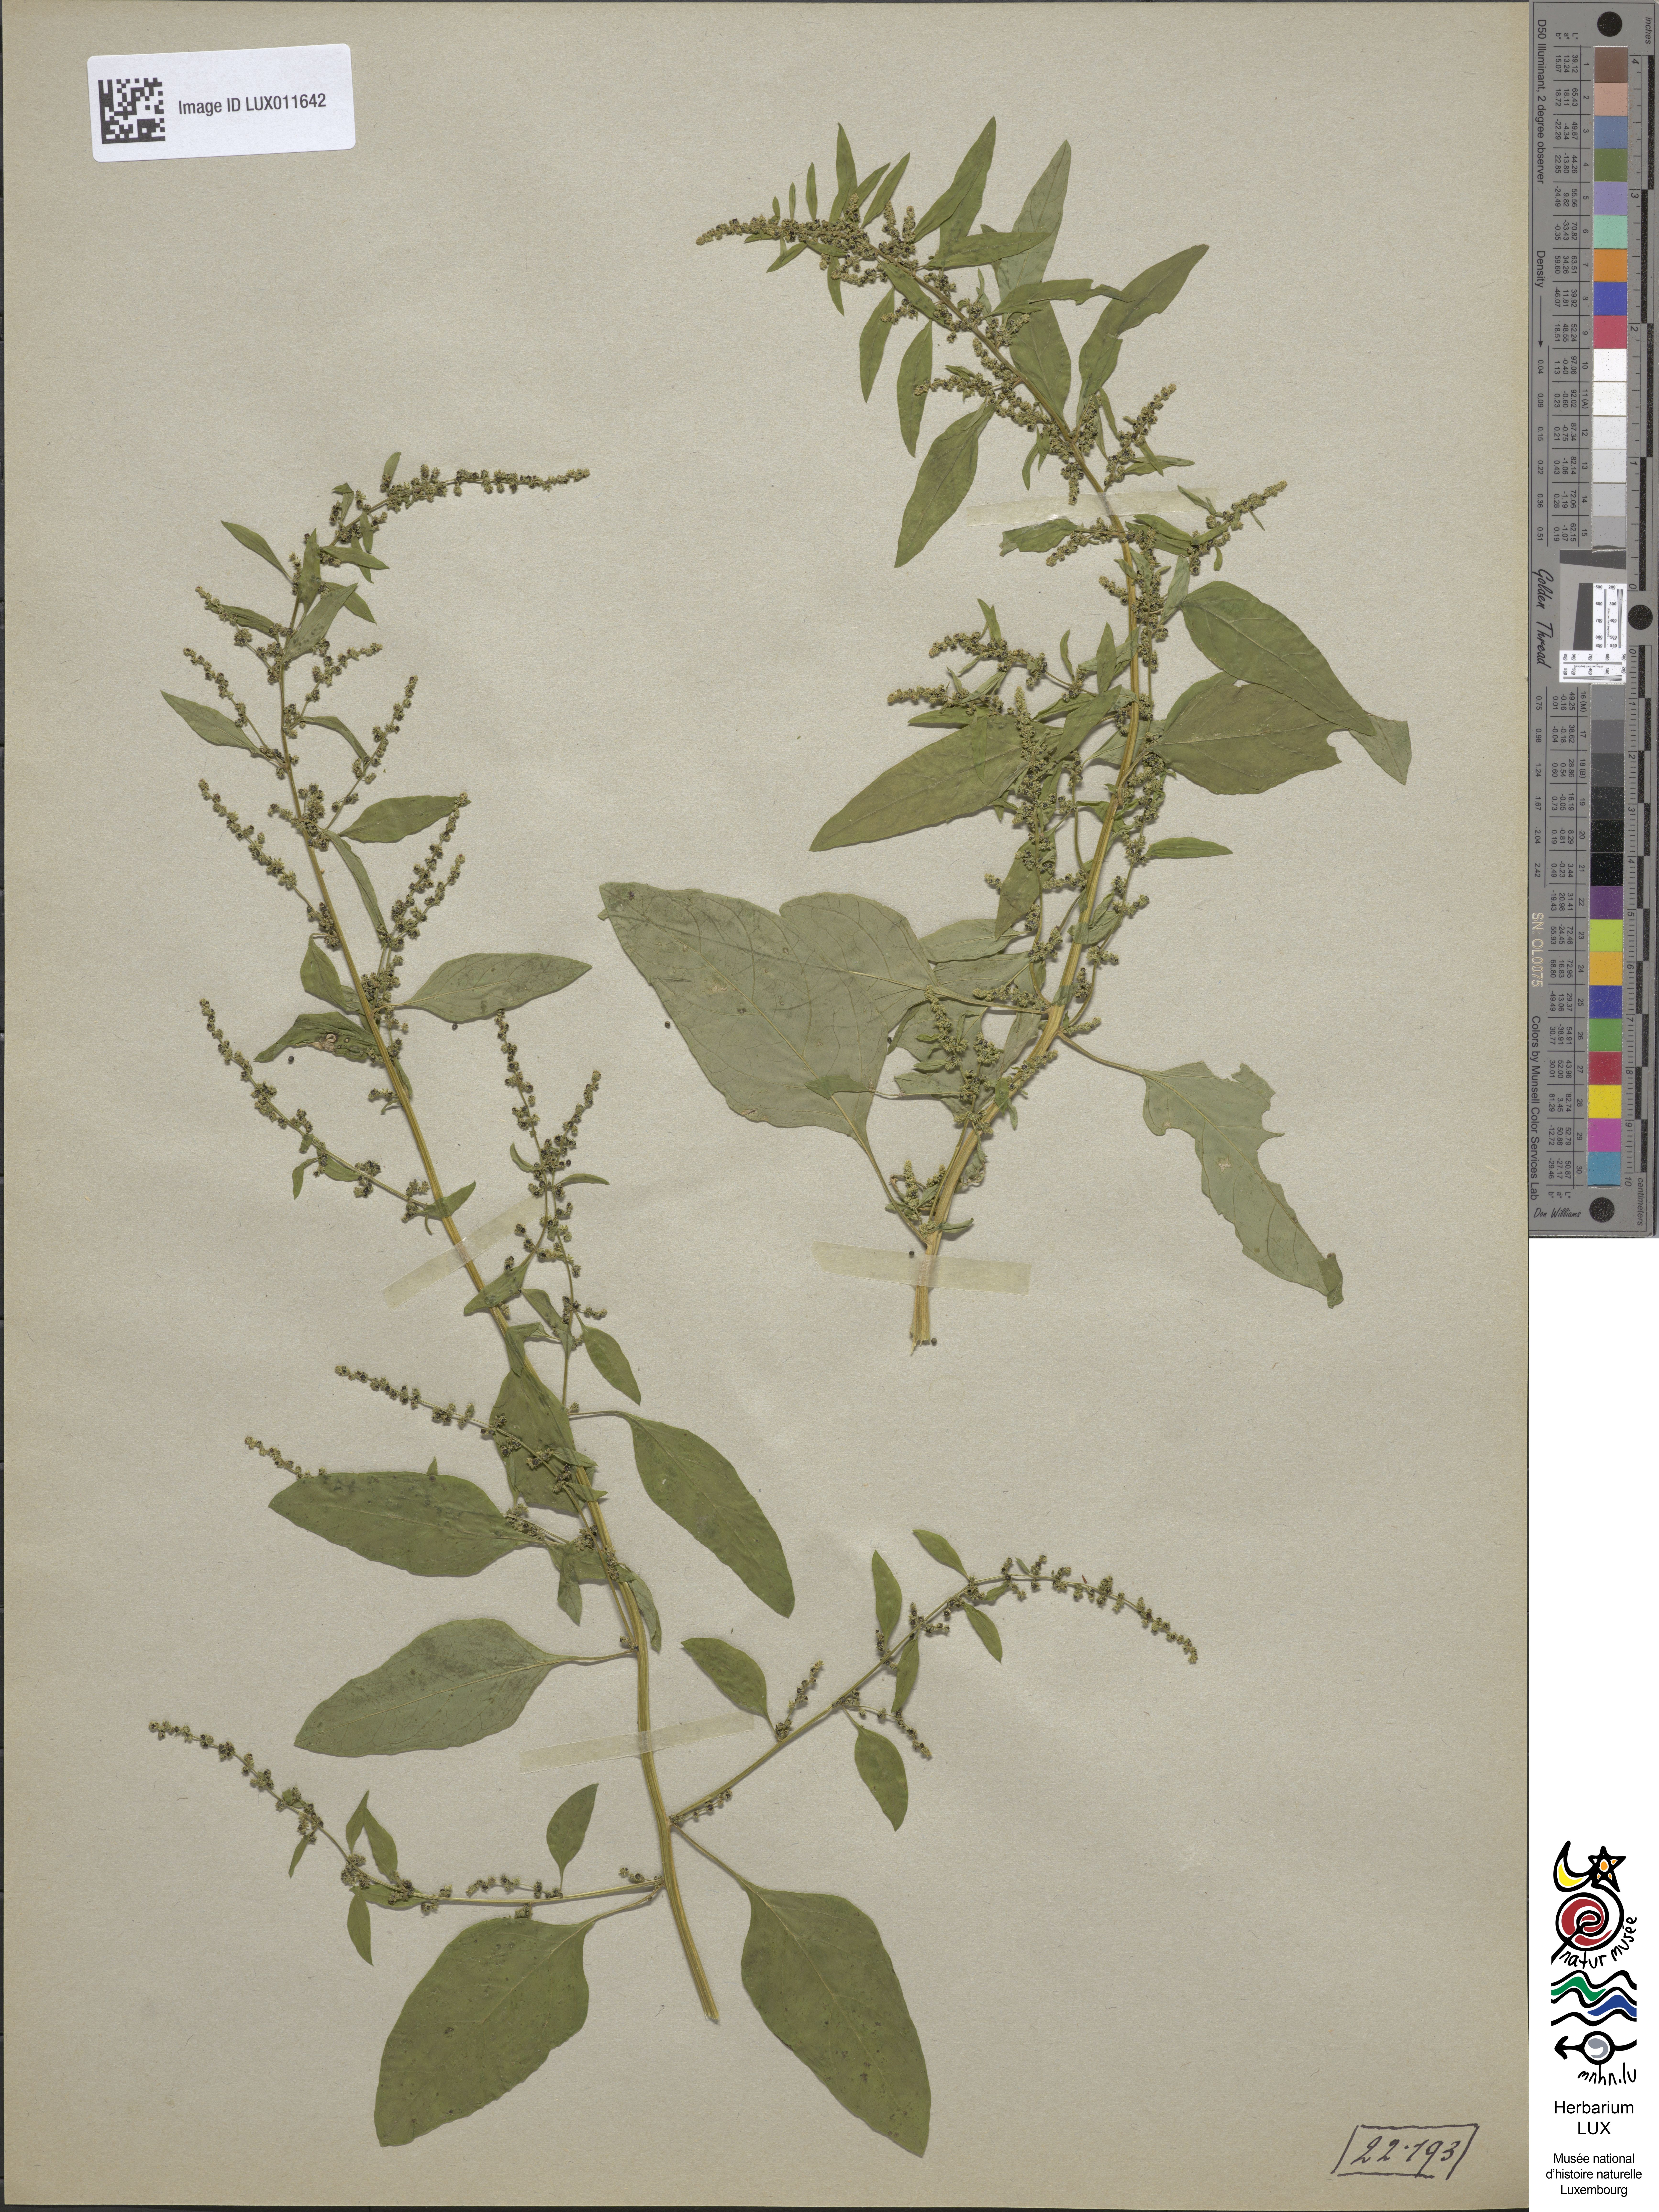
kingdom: Plantae
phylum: Tracheophyta
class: Magnoliopsida
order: Caryophyllales
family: Amaranthaceae
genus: Lipandra
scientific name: Lipandra polysperma
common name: Many-seed goosefoot
